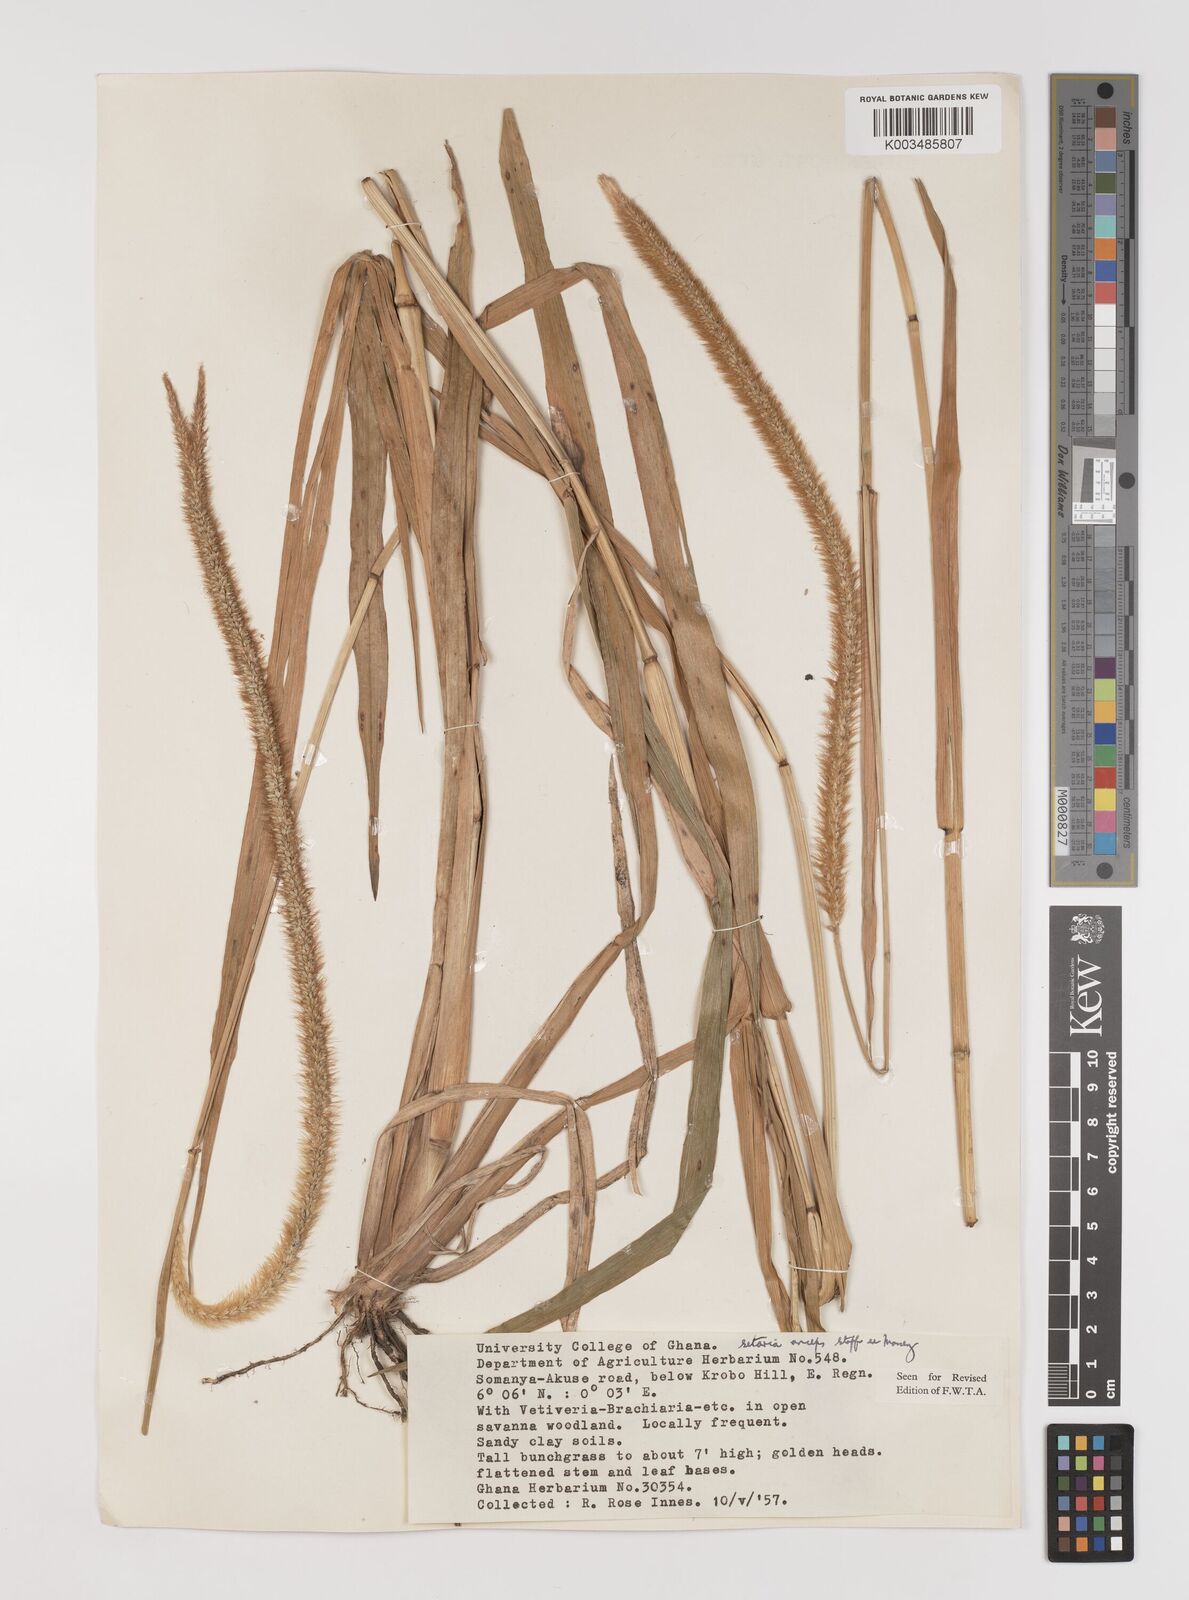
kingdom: Plantae
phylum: Tracheophyta
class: Liliopsida
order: Poales
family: Poaceae
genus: Setaria
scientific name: Setaria sphacelata
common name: African bristlegrass
